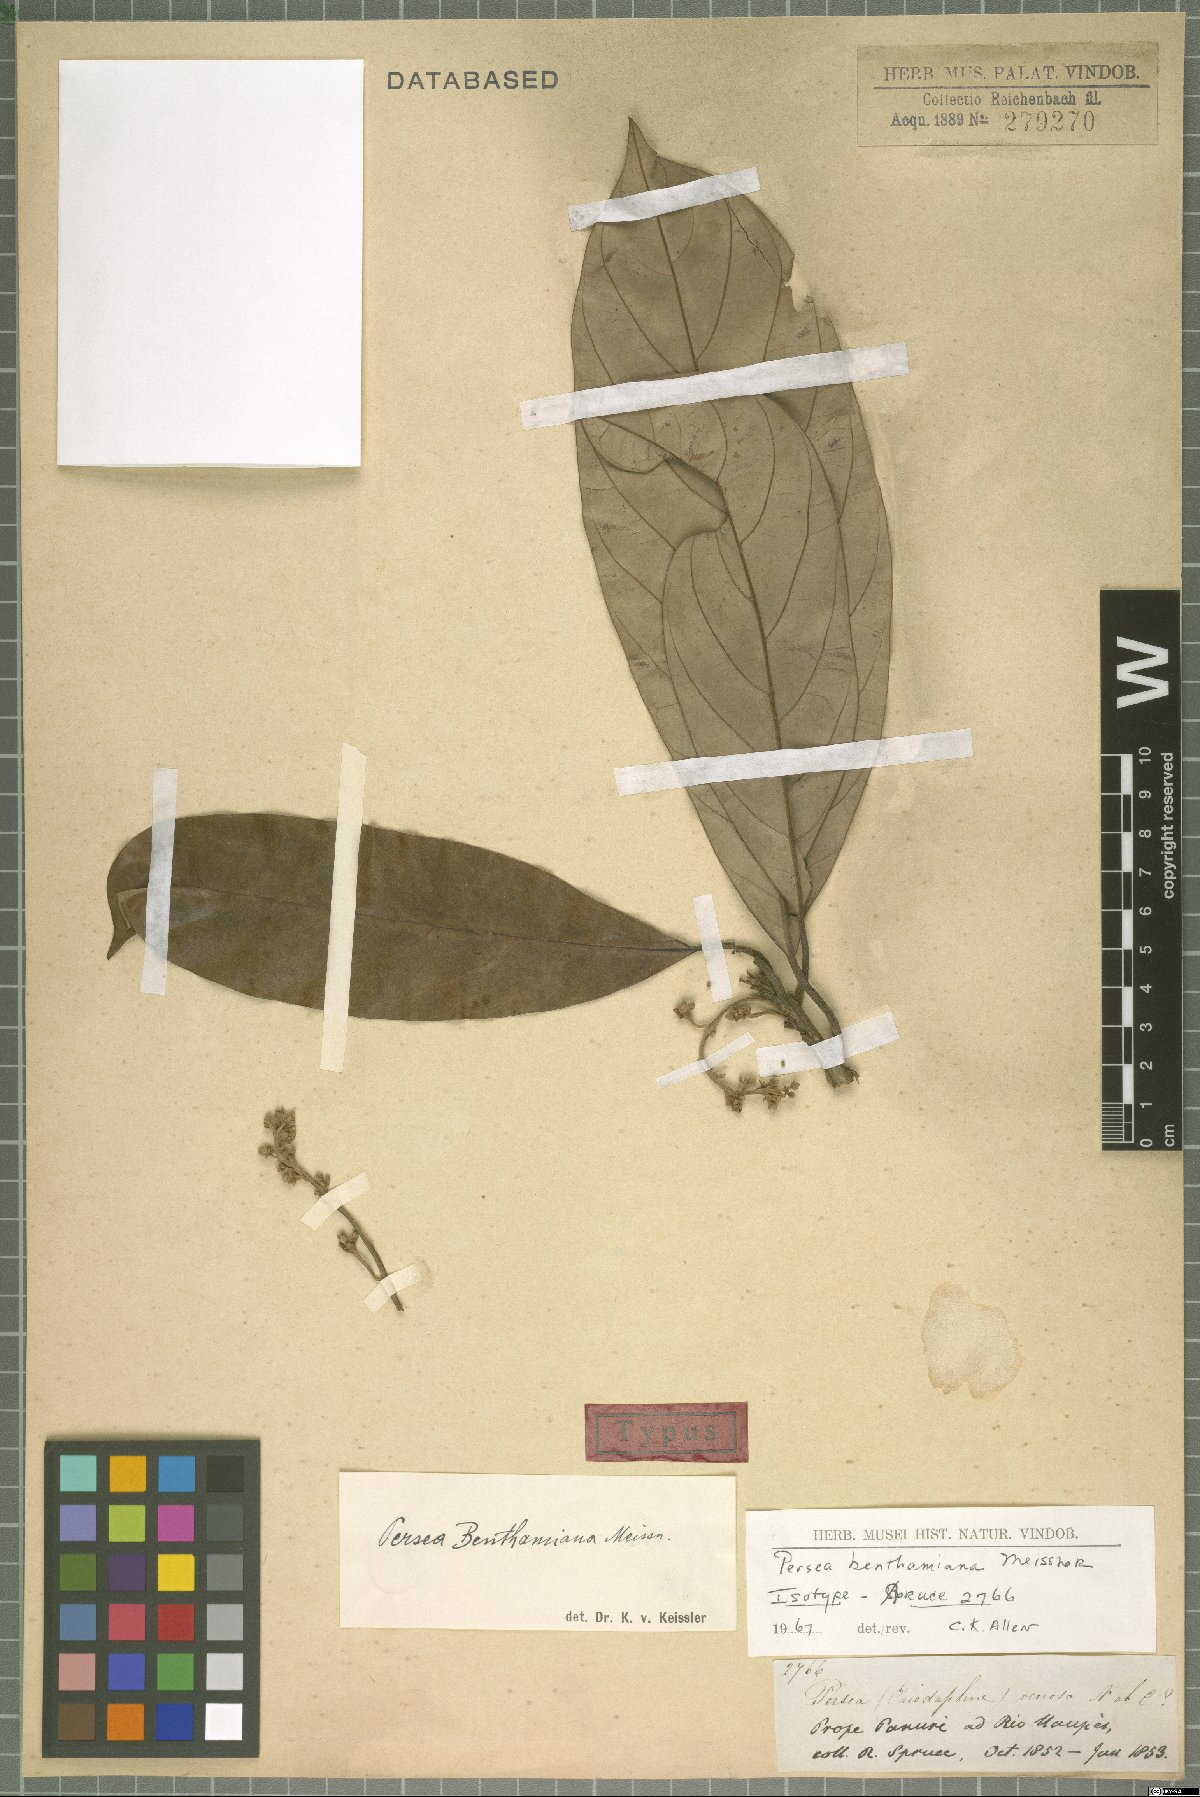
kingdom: Plantae
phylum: Tracheophyta
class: Magnoliopsida
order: Laurales
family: Lauraceae
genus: Persea
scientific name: Persea benthamiana
